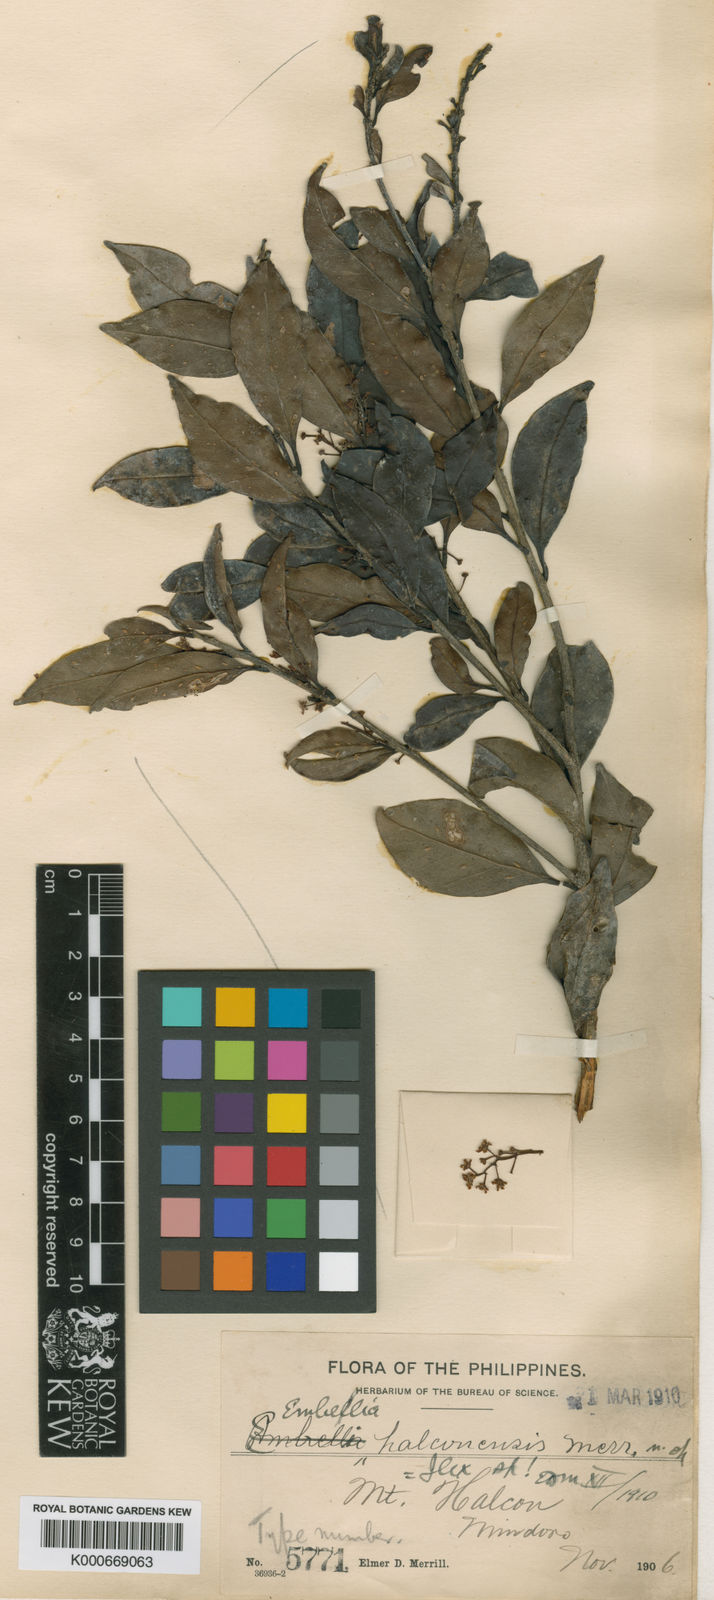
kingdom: Plantae
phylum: Tracheophyta
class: Magnoliopsida
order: Aquifoliales
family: Aquifoliaceae
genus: Ilex
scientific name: Ilex malaccensis
